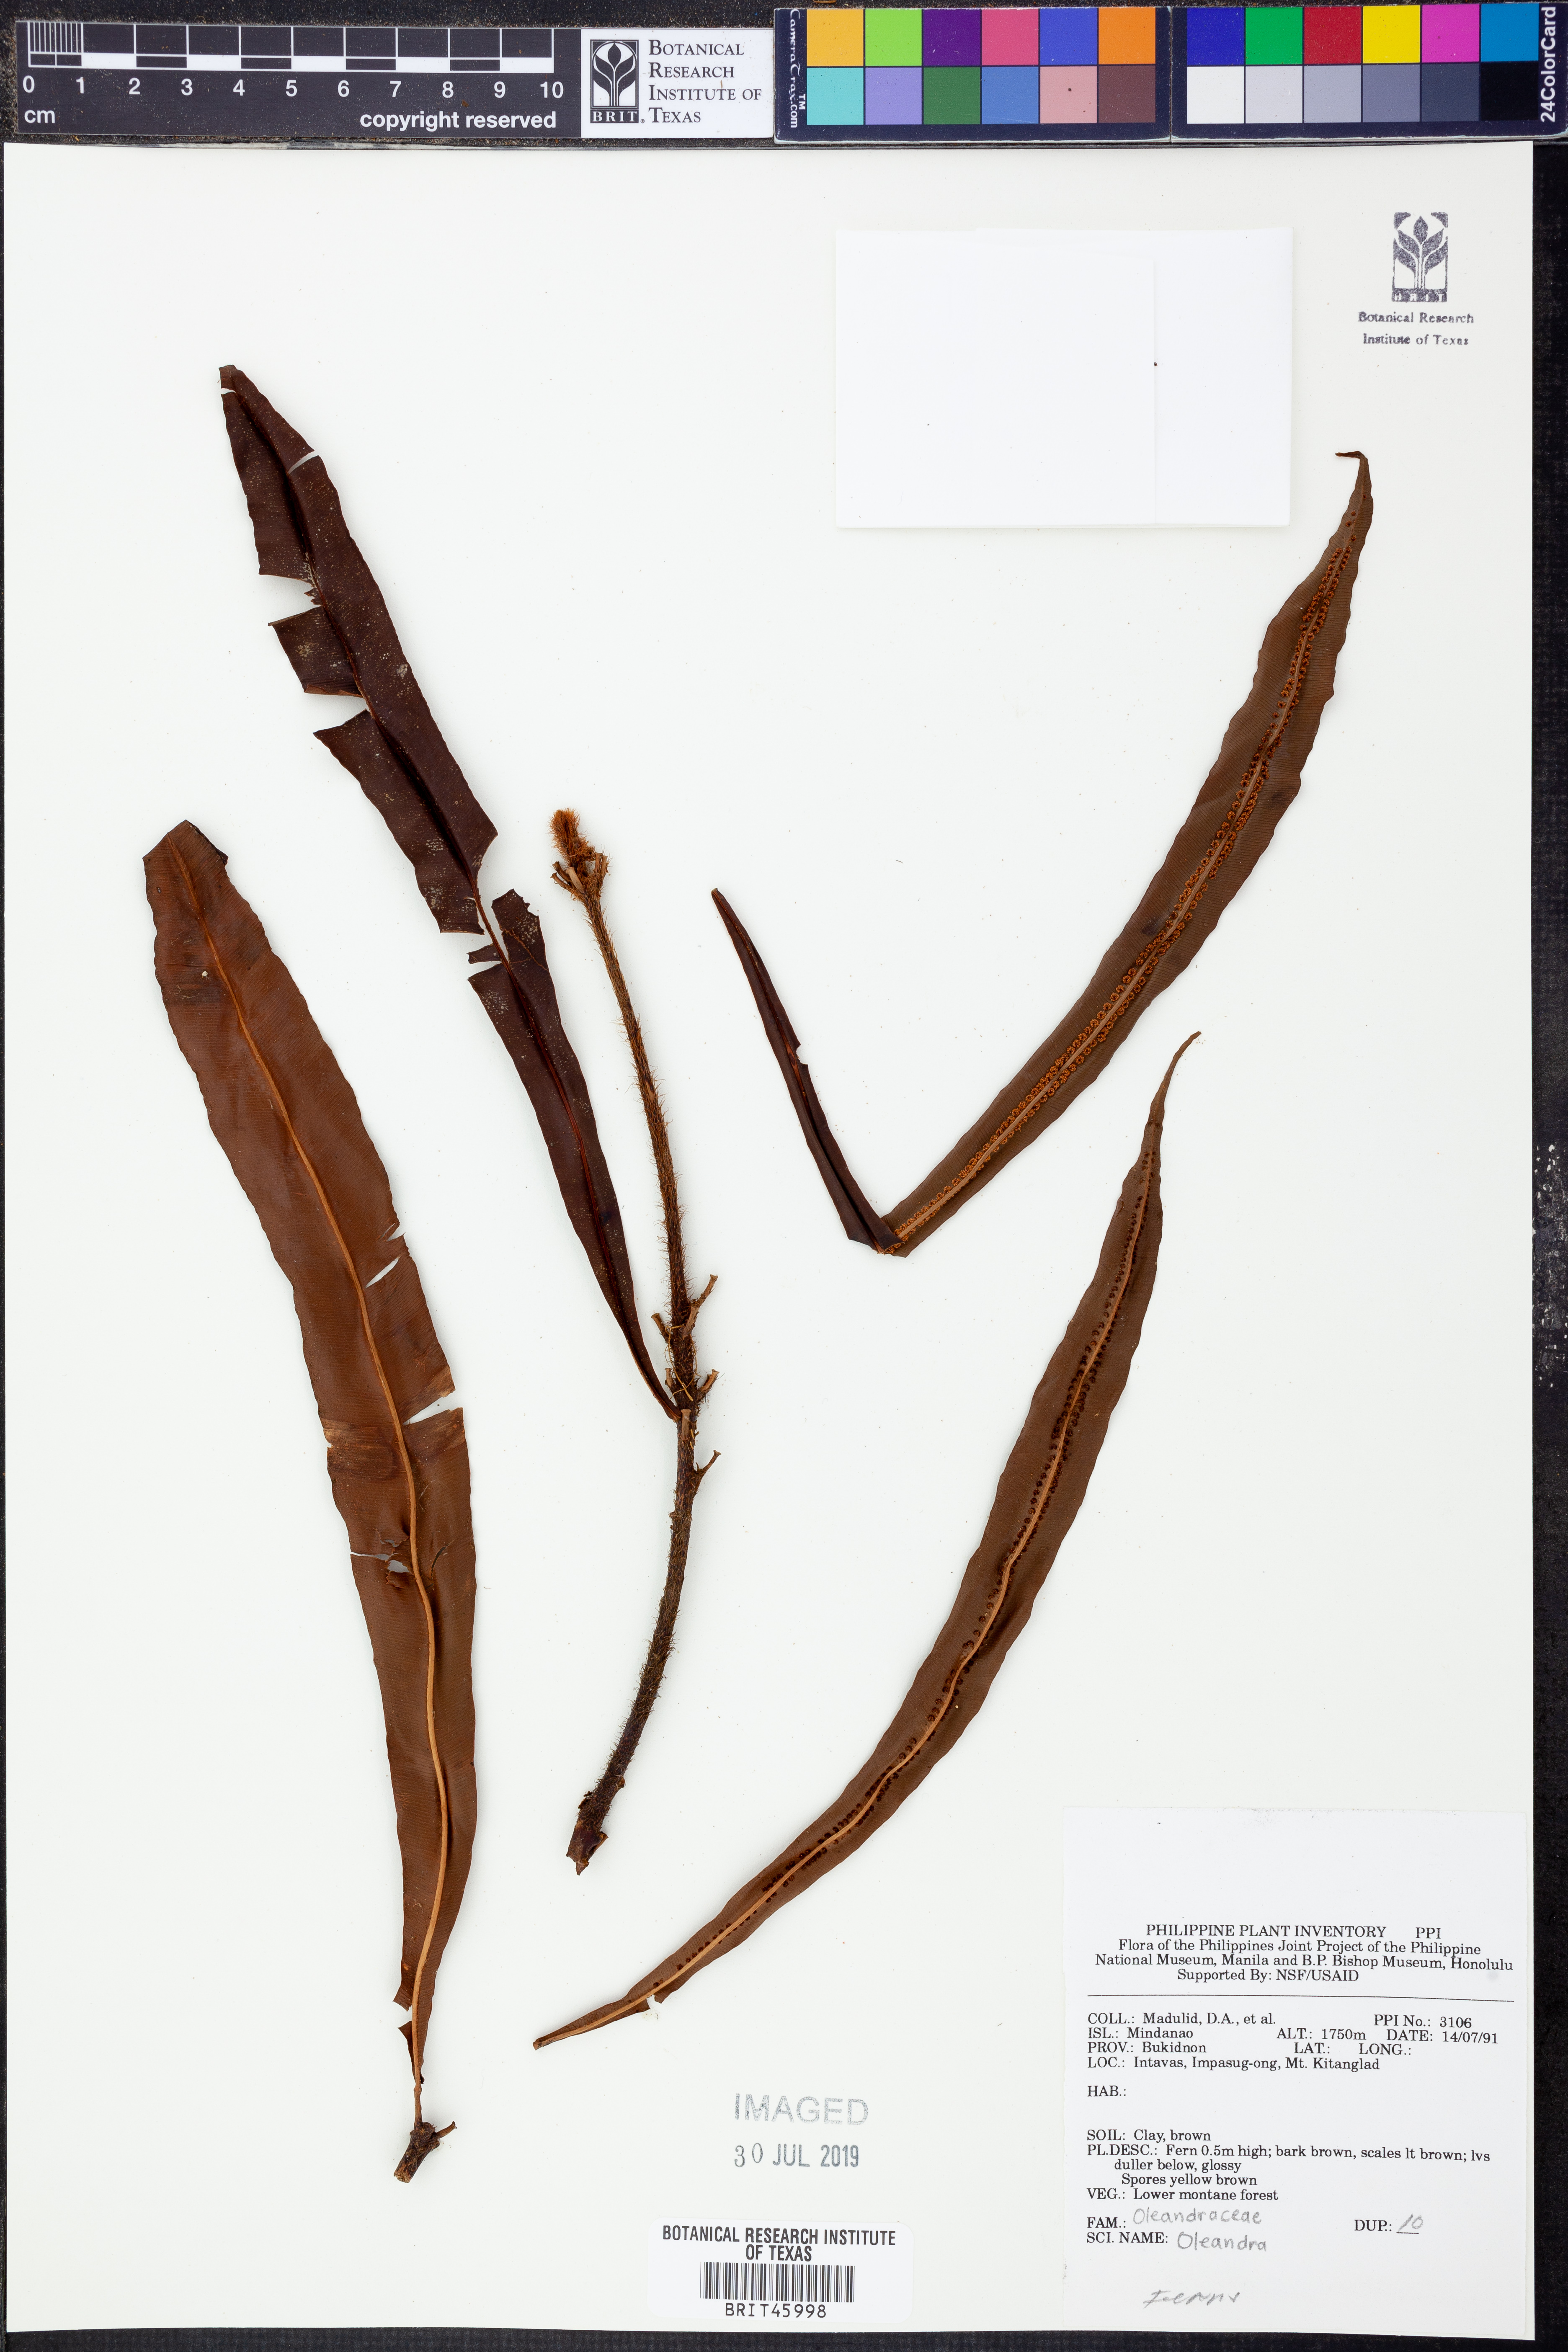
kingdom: Plantae
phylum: Tracheophyta
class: Polypodiopsida
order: Polypodiales
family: Oleandraceae
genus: Oleandra
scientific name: Oleandra
